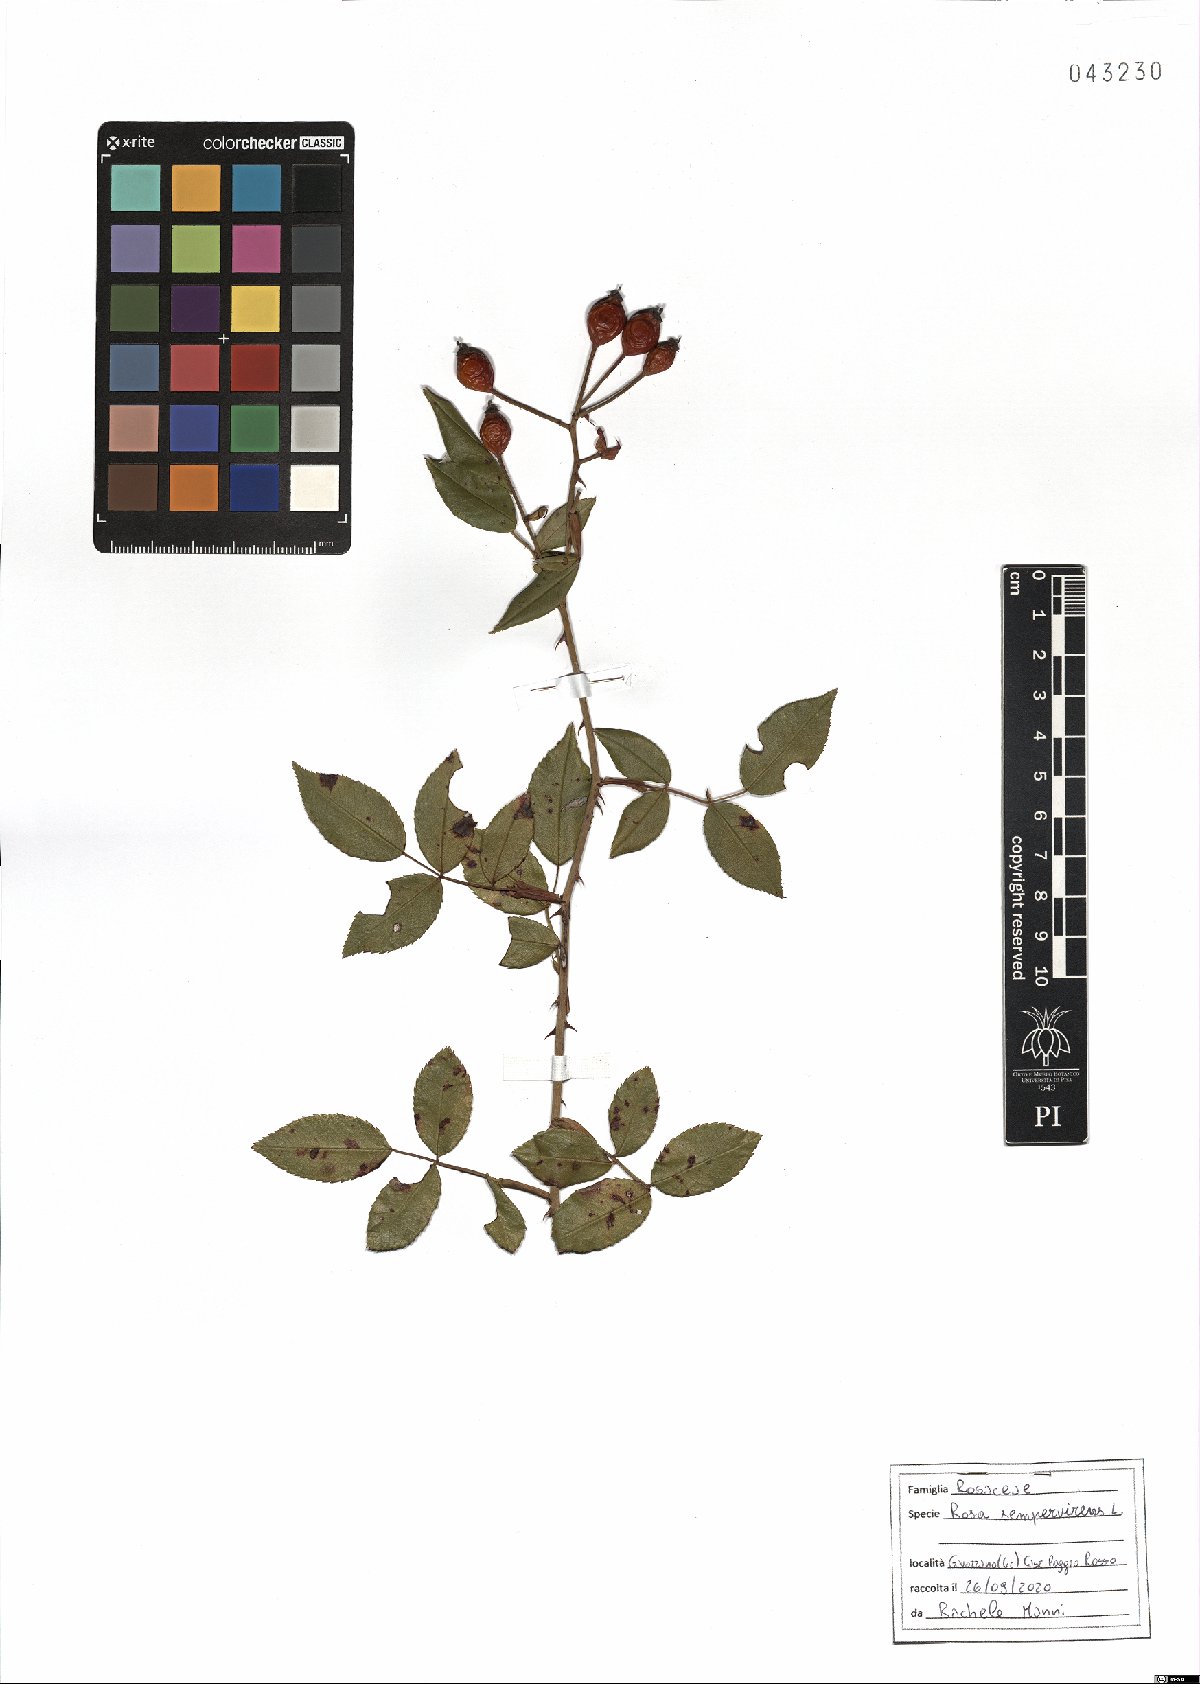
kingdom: Plantae
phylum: Tracheophyta
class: Magnoliopsida
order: Rosales
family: Rosaceae
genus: Rosa
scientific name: Rosa sempervirens
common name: Evergreen rose
